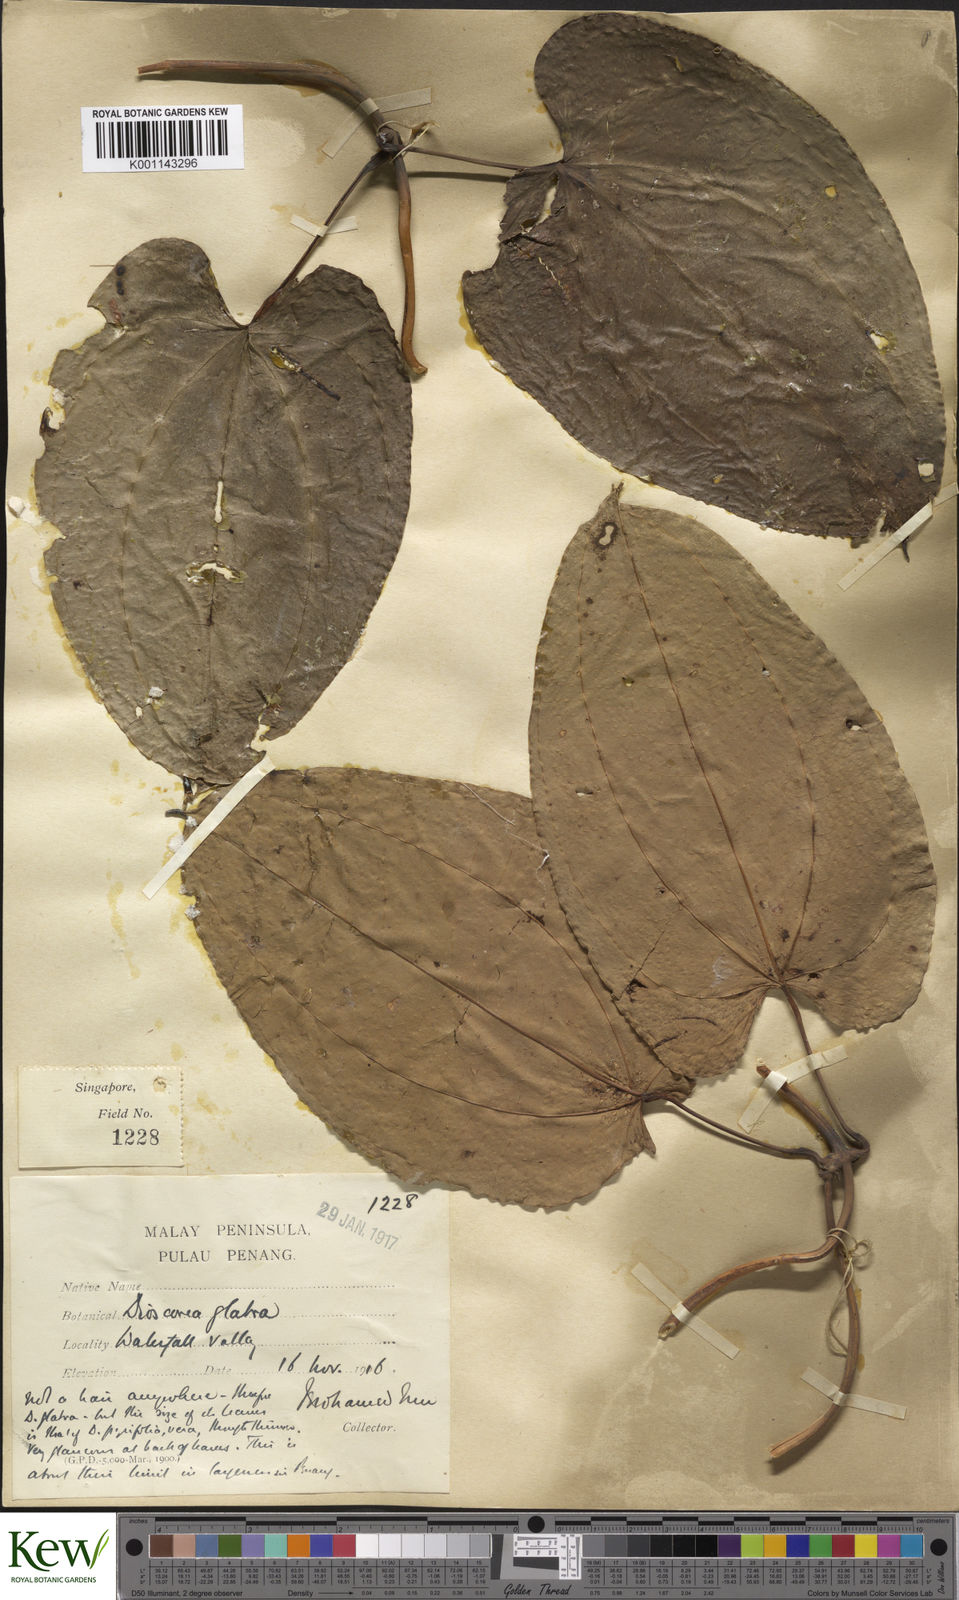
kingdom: Plantae
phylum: Tracheophyta
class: Liliopsida
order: Dioscoreales
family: Dioscoreaceae
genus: Dioscorea
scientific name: Dioscorea glabra
